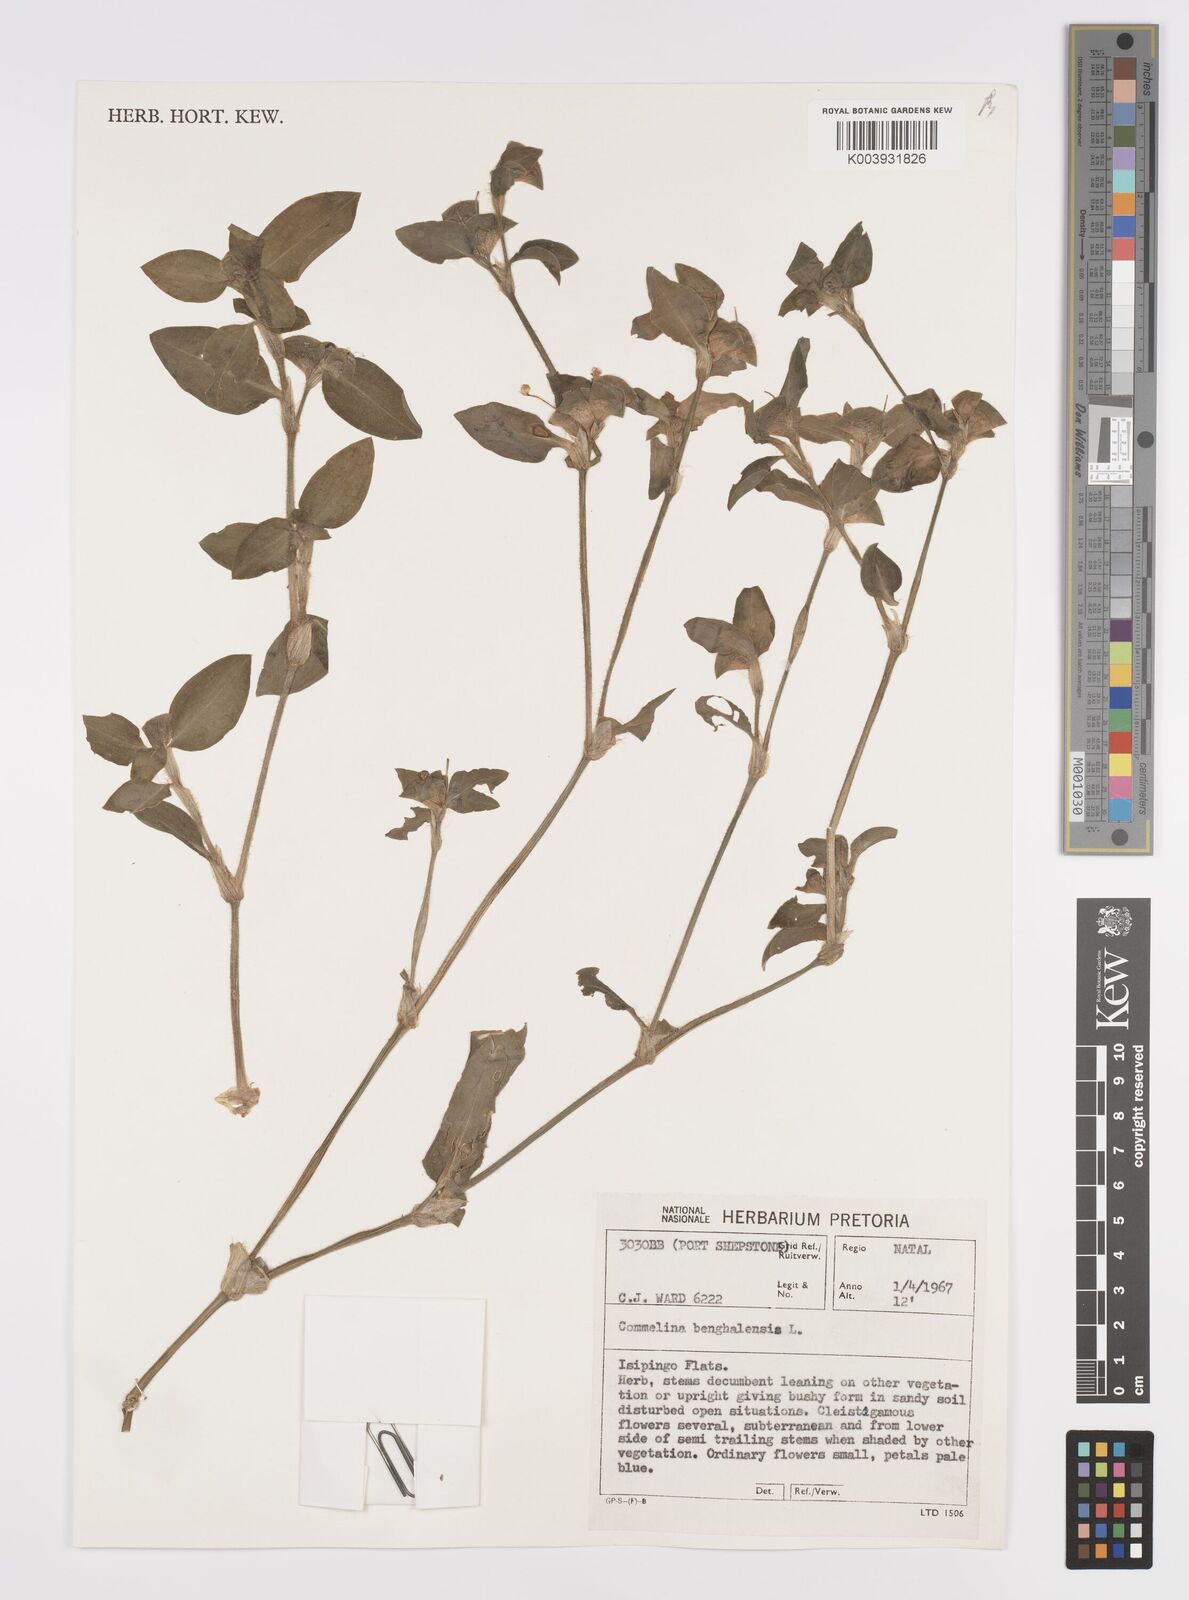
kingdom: Plantae
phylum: Tracheophyta
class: Liliopsida
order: Commelinales
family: Commelinaceae
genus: Commelina
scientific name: Commelina benghalensis
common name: Jio
